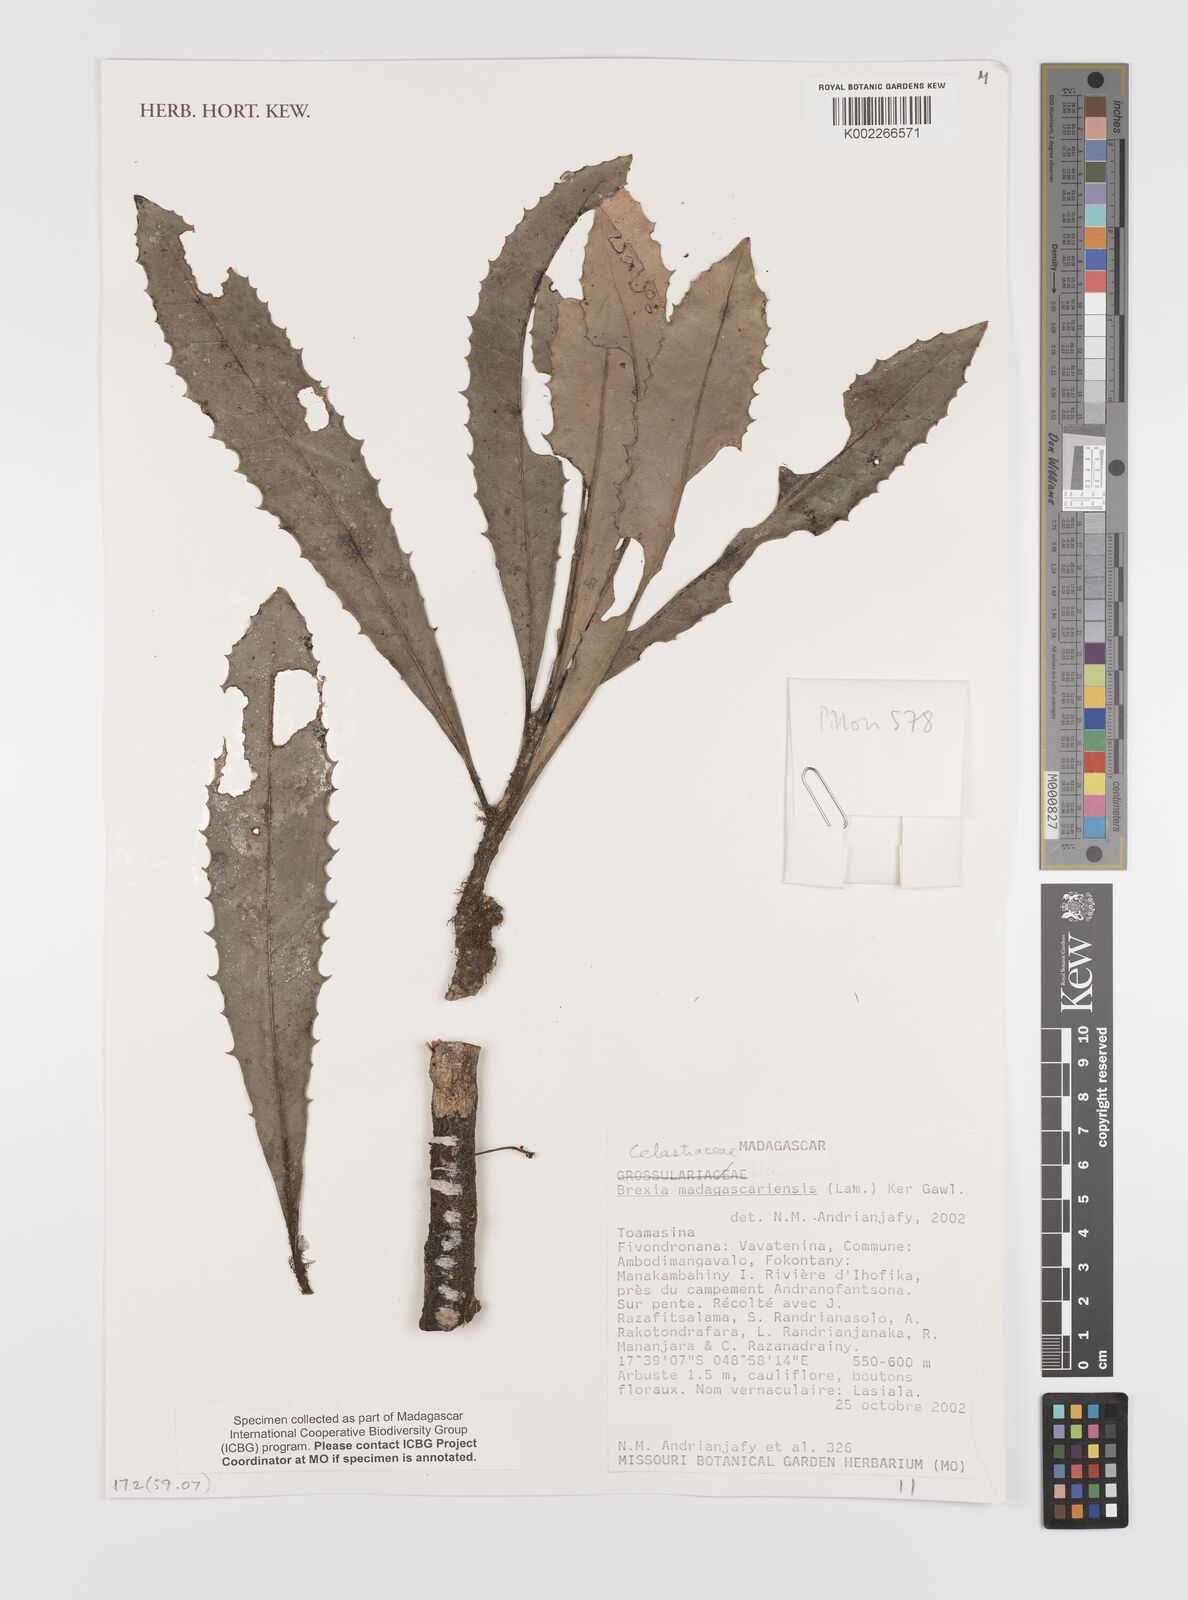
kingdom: Plantae
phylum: Tracheophyta
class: Magnoliopsida
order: Celastrales
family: Celastraceae
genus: Brexia
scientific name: Brexia madagascariensis
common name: Brexia
